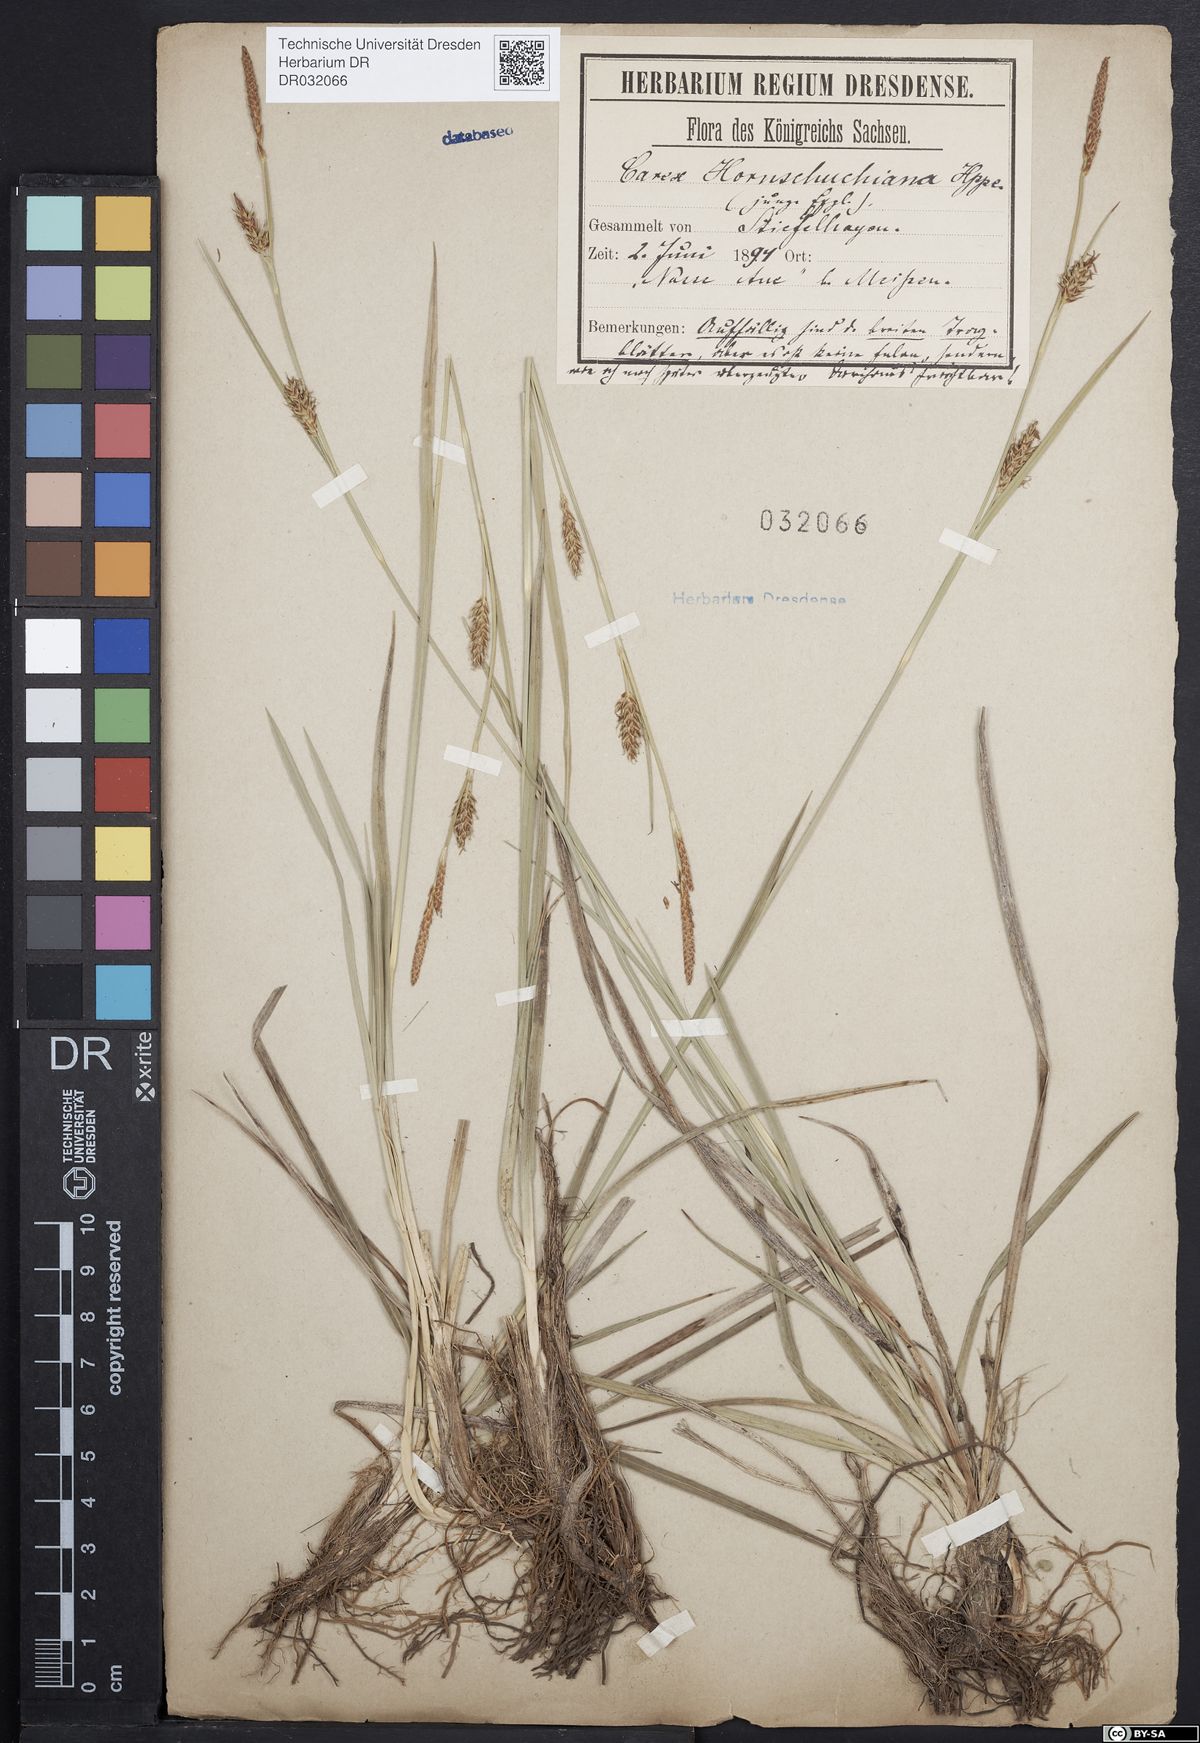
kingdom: Plantae
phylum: Tracheophyta
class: Liliopsida
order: Poales
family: Cyperaceae
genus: Carex
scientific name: Carex hostiana
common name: Tawny sedge
